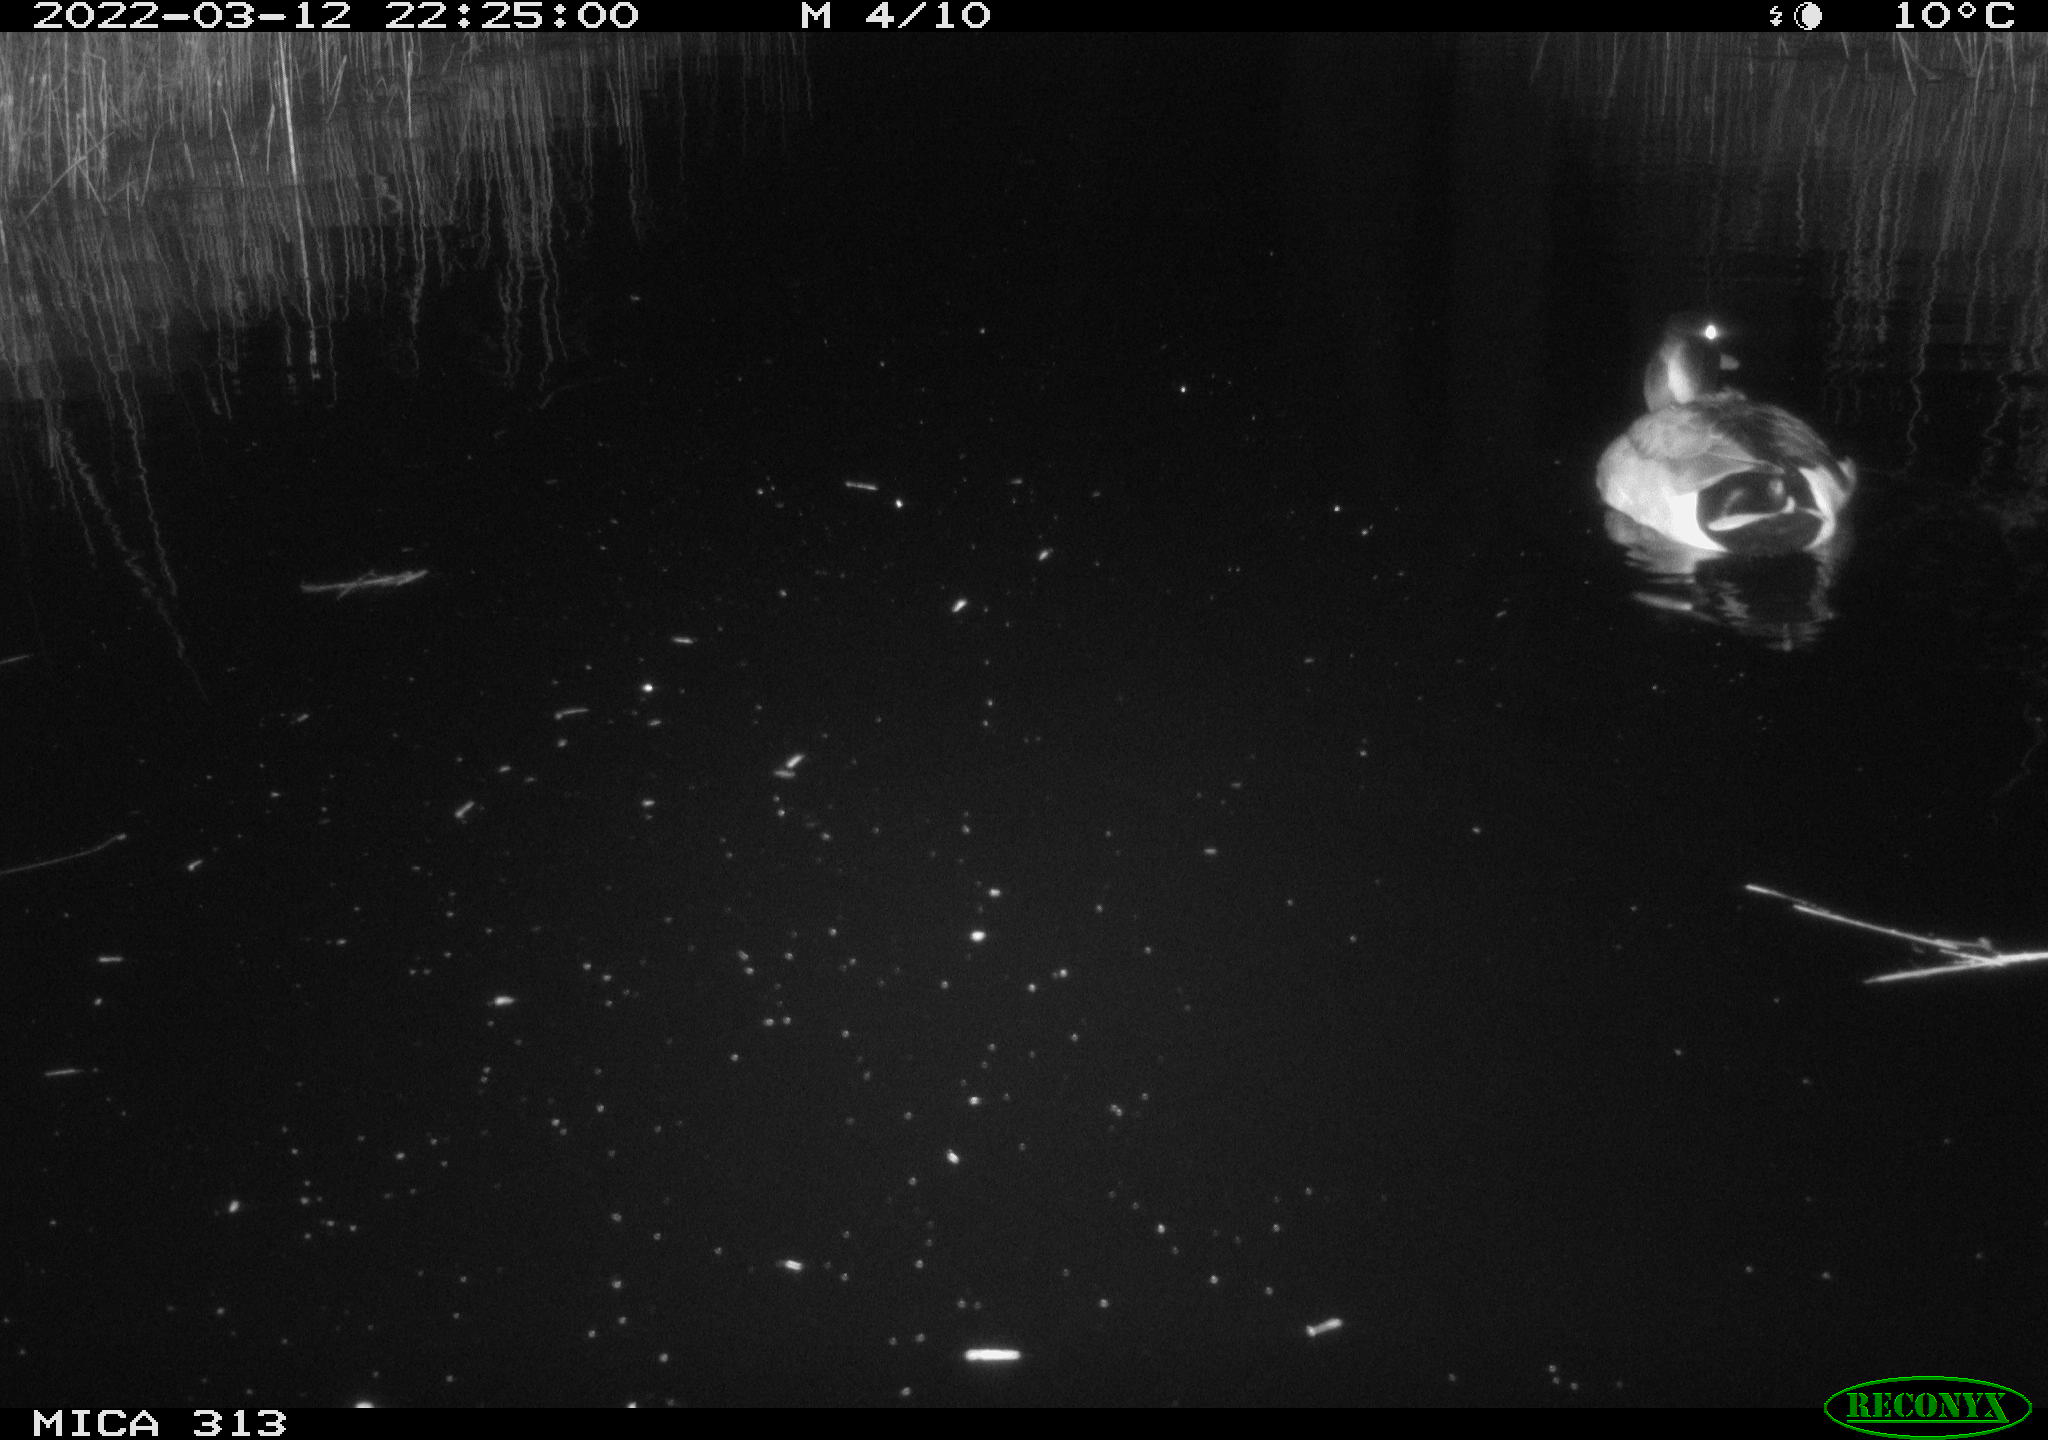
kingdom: Animalia
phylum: Chordata
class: Aves
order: Anseriformes
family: Anatidae
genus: Anas
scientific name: Anas platyrhynchos
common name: Mallard
